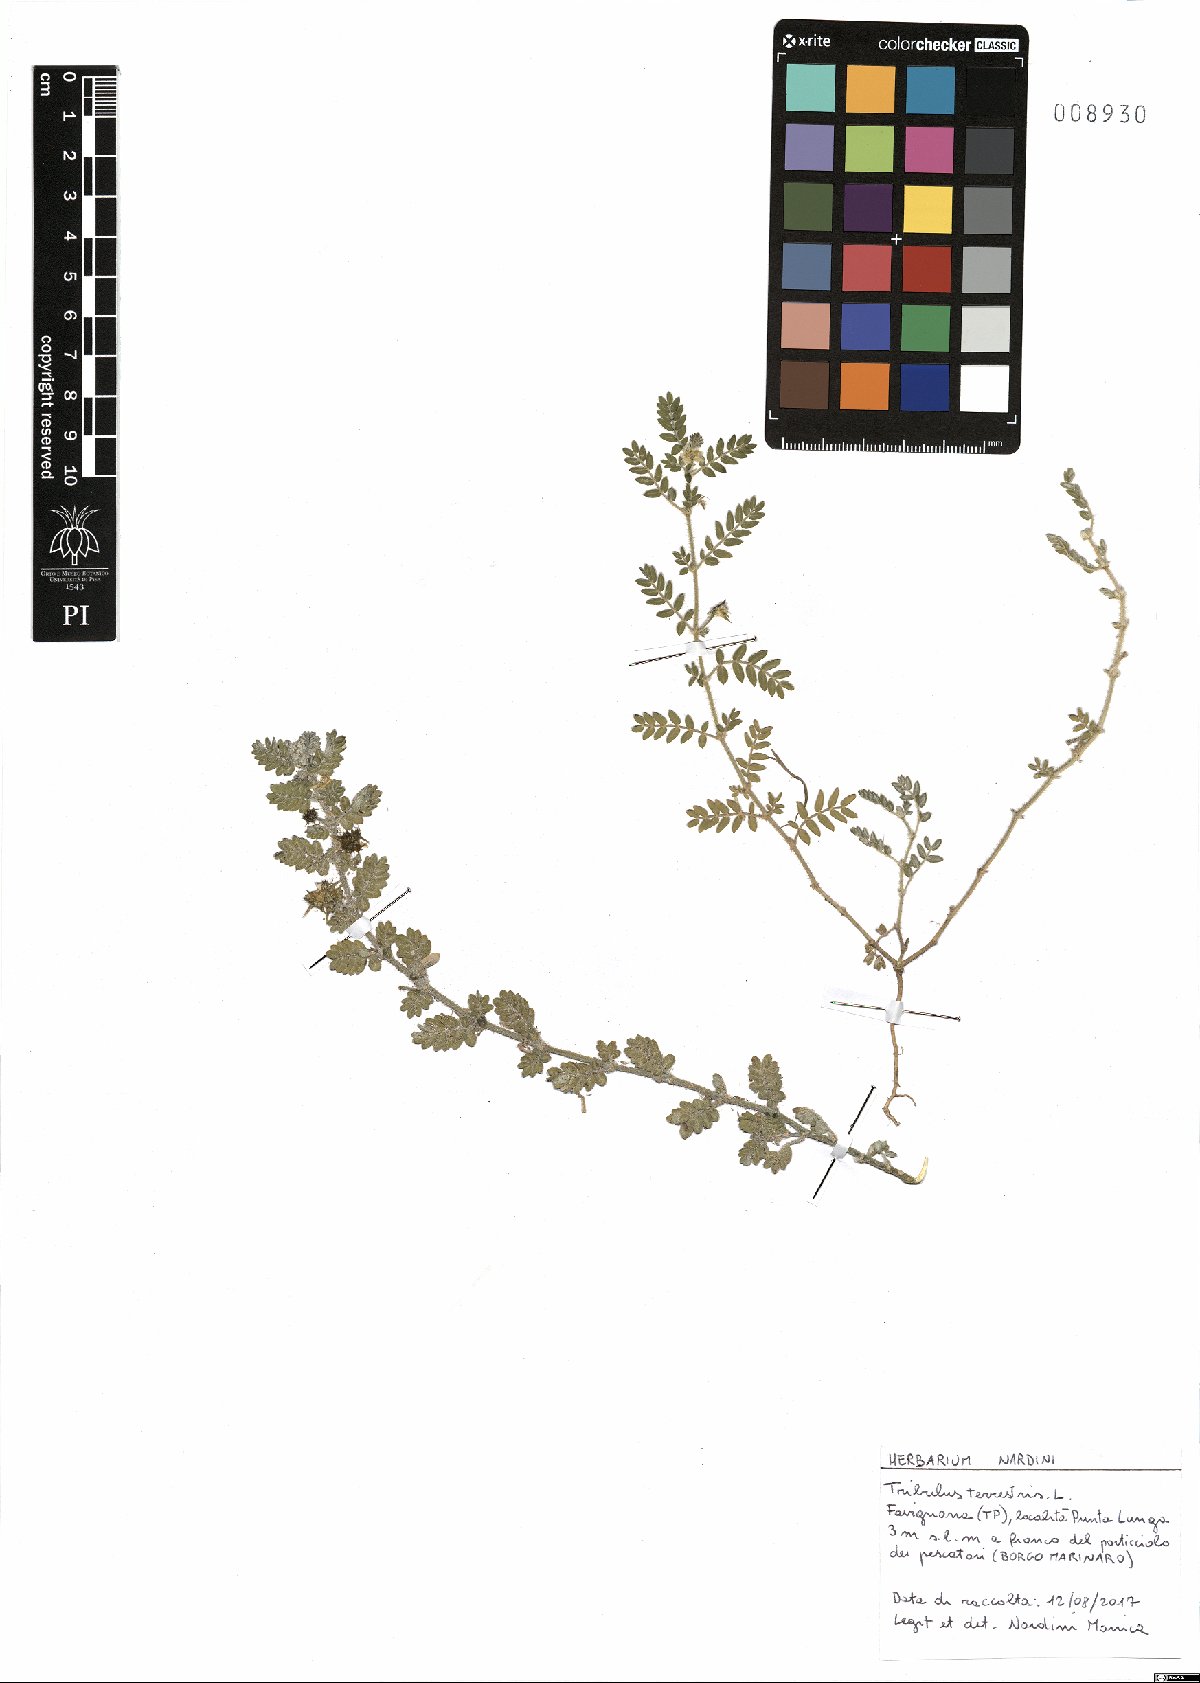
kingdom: Plantae
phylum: Tracheophyta
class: Magnoliopsida
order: Zygophyllales
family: Zygophyllaceae
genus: Tribulus
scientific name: Tribulus terrestris
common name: Puncturevine
